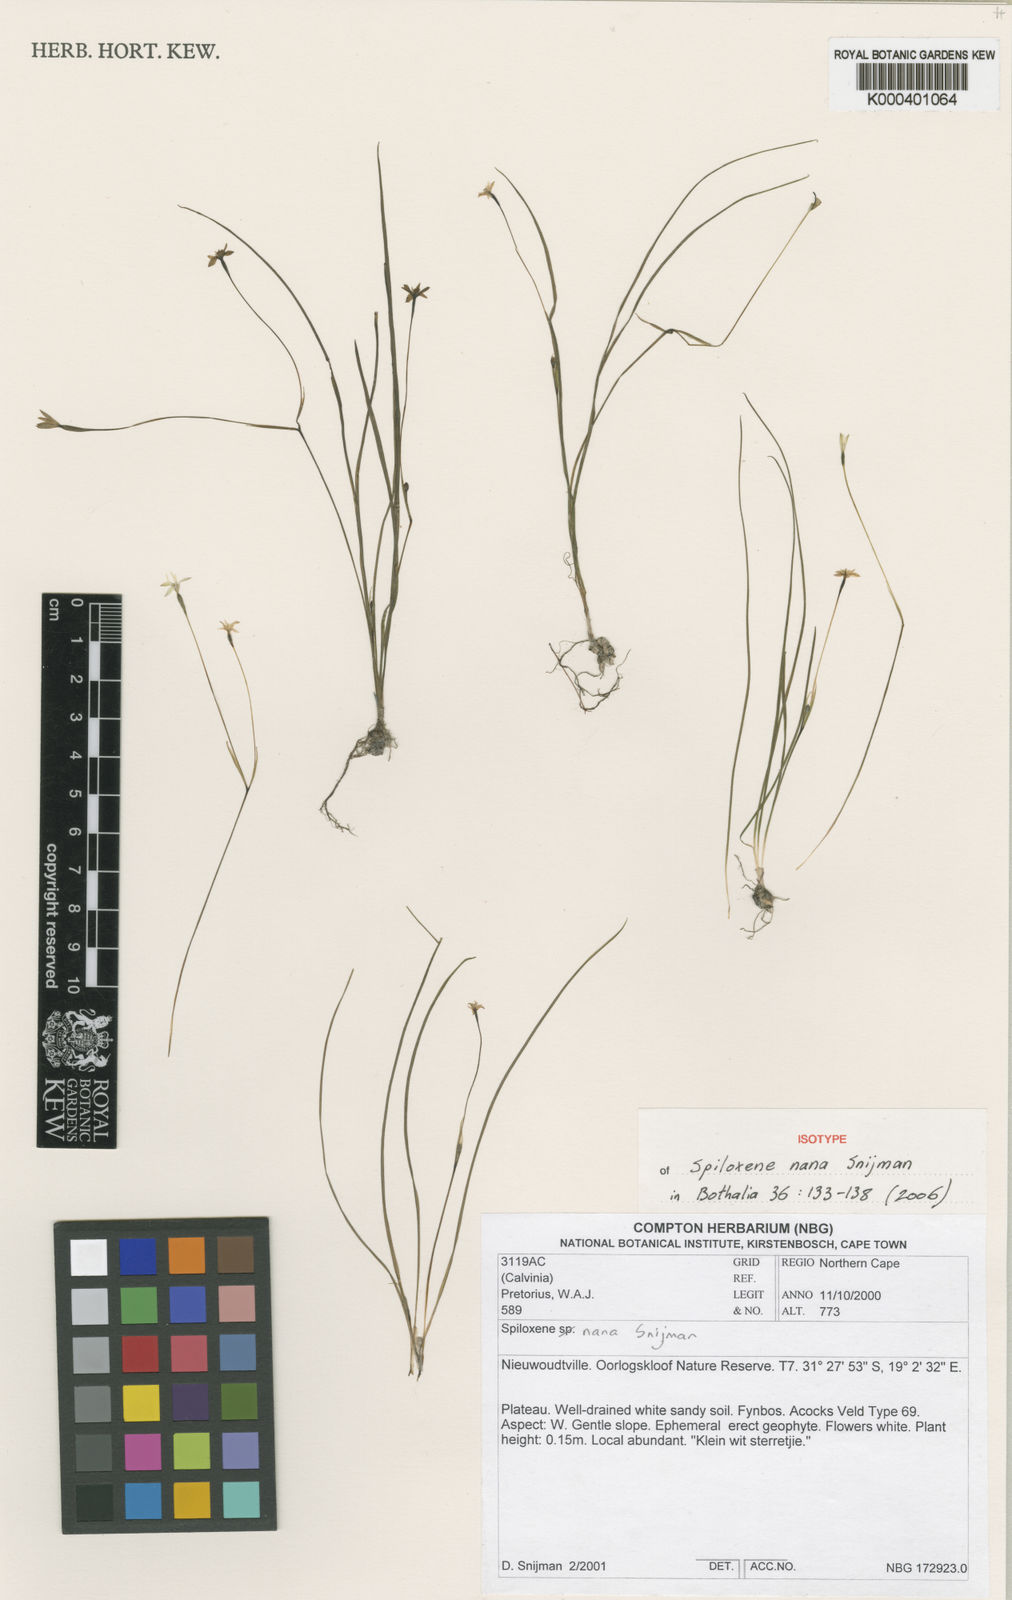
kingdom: Plantae
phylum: Tracheophyta
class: Liliopsida
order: Asparagales
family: Hypoxidaceae
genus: Pauridia
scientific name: Pauridia nana
